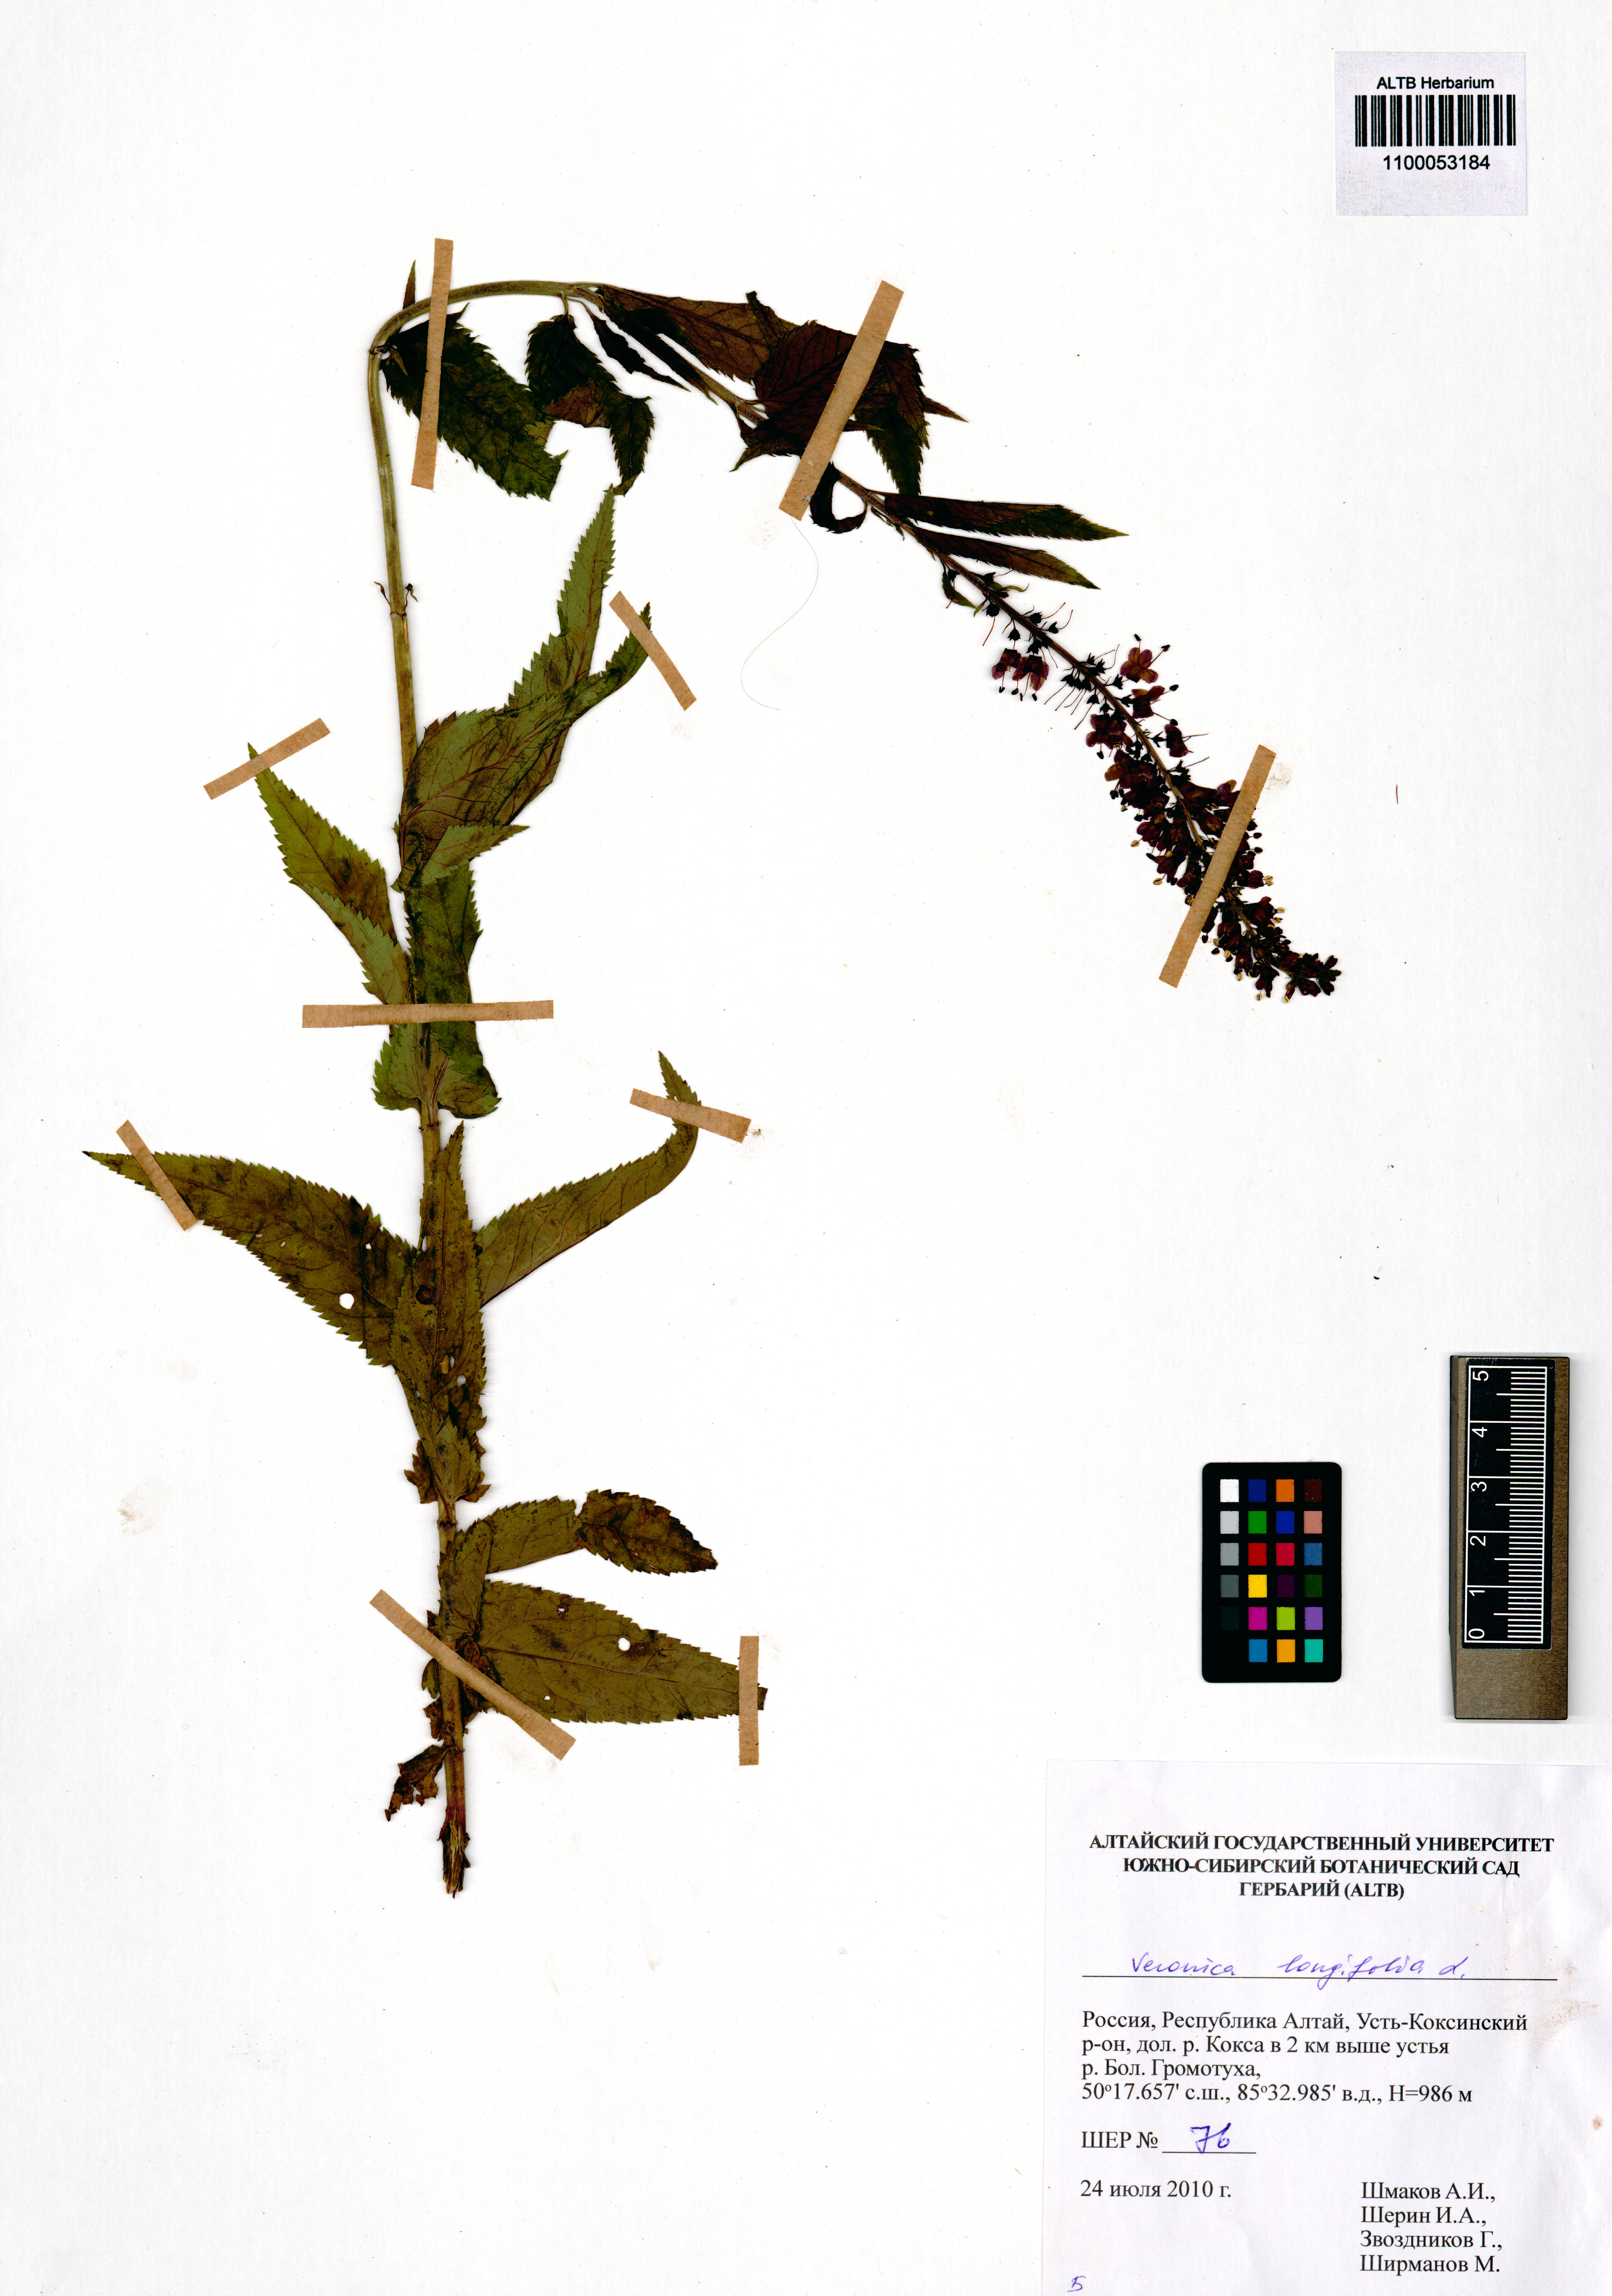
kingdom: Plantae
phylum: Tracheophyta
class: Magnoliopsida
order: Lamiales
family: Plantaginaceae
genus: Veronica
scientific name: Veronica longifolia
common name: Garden speedwell
